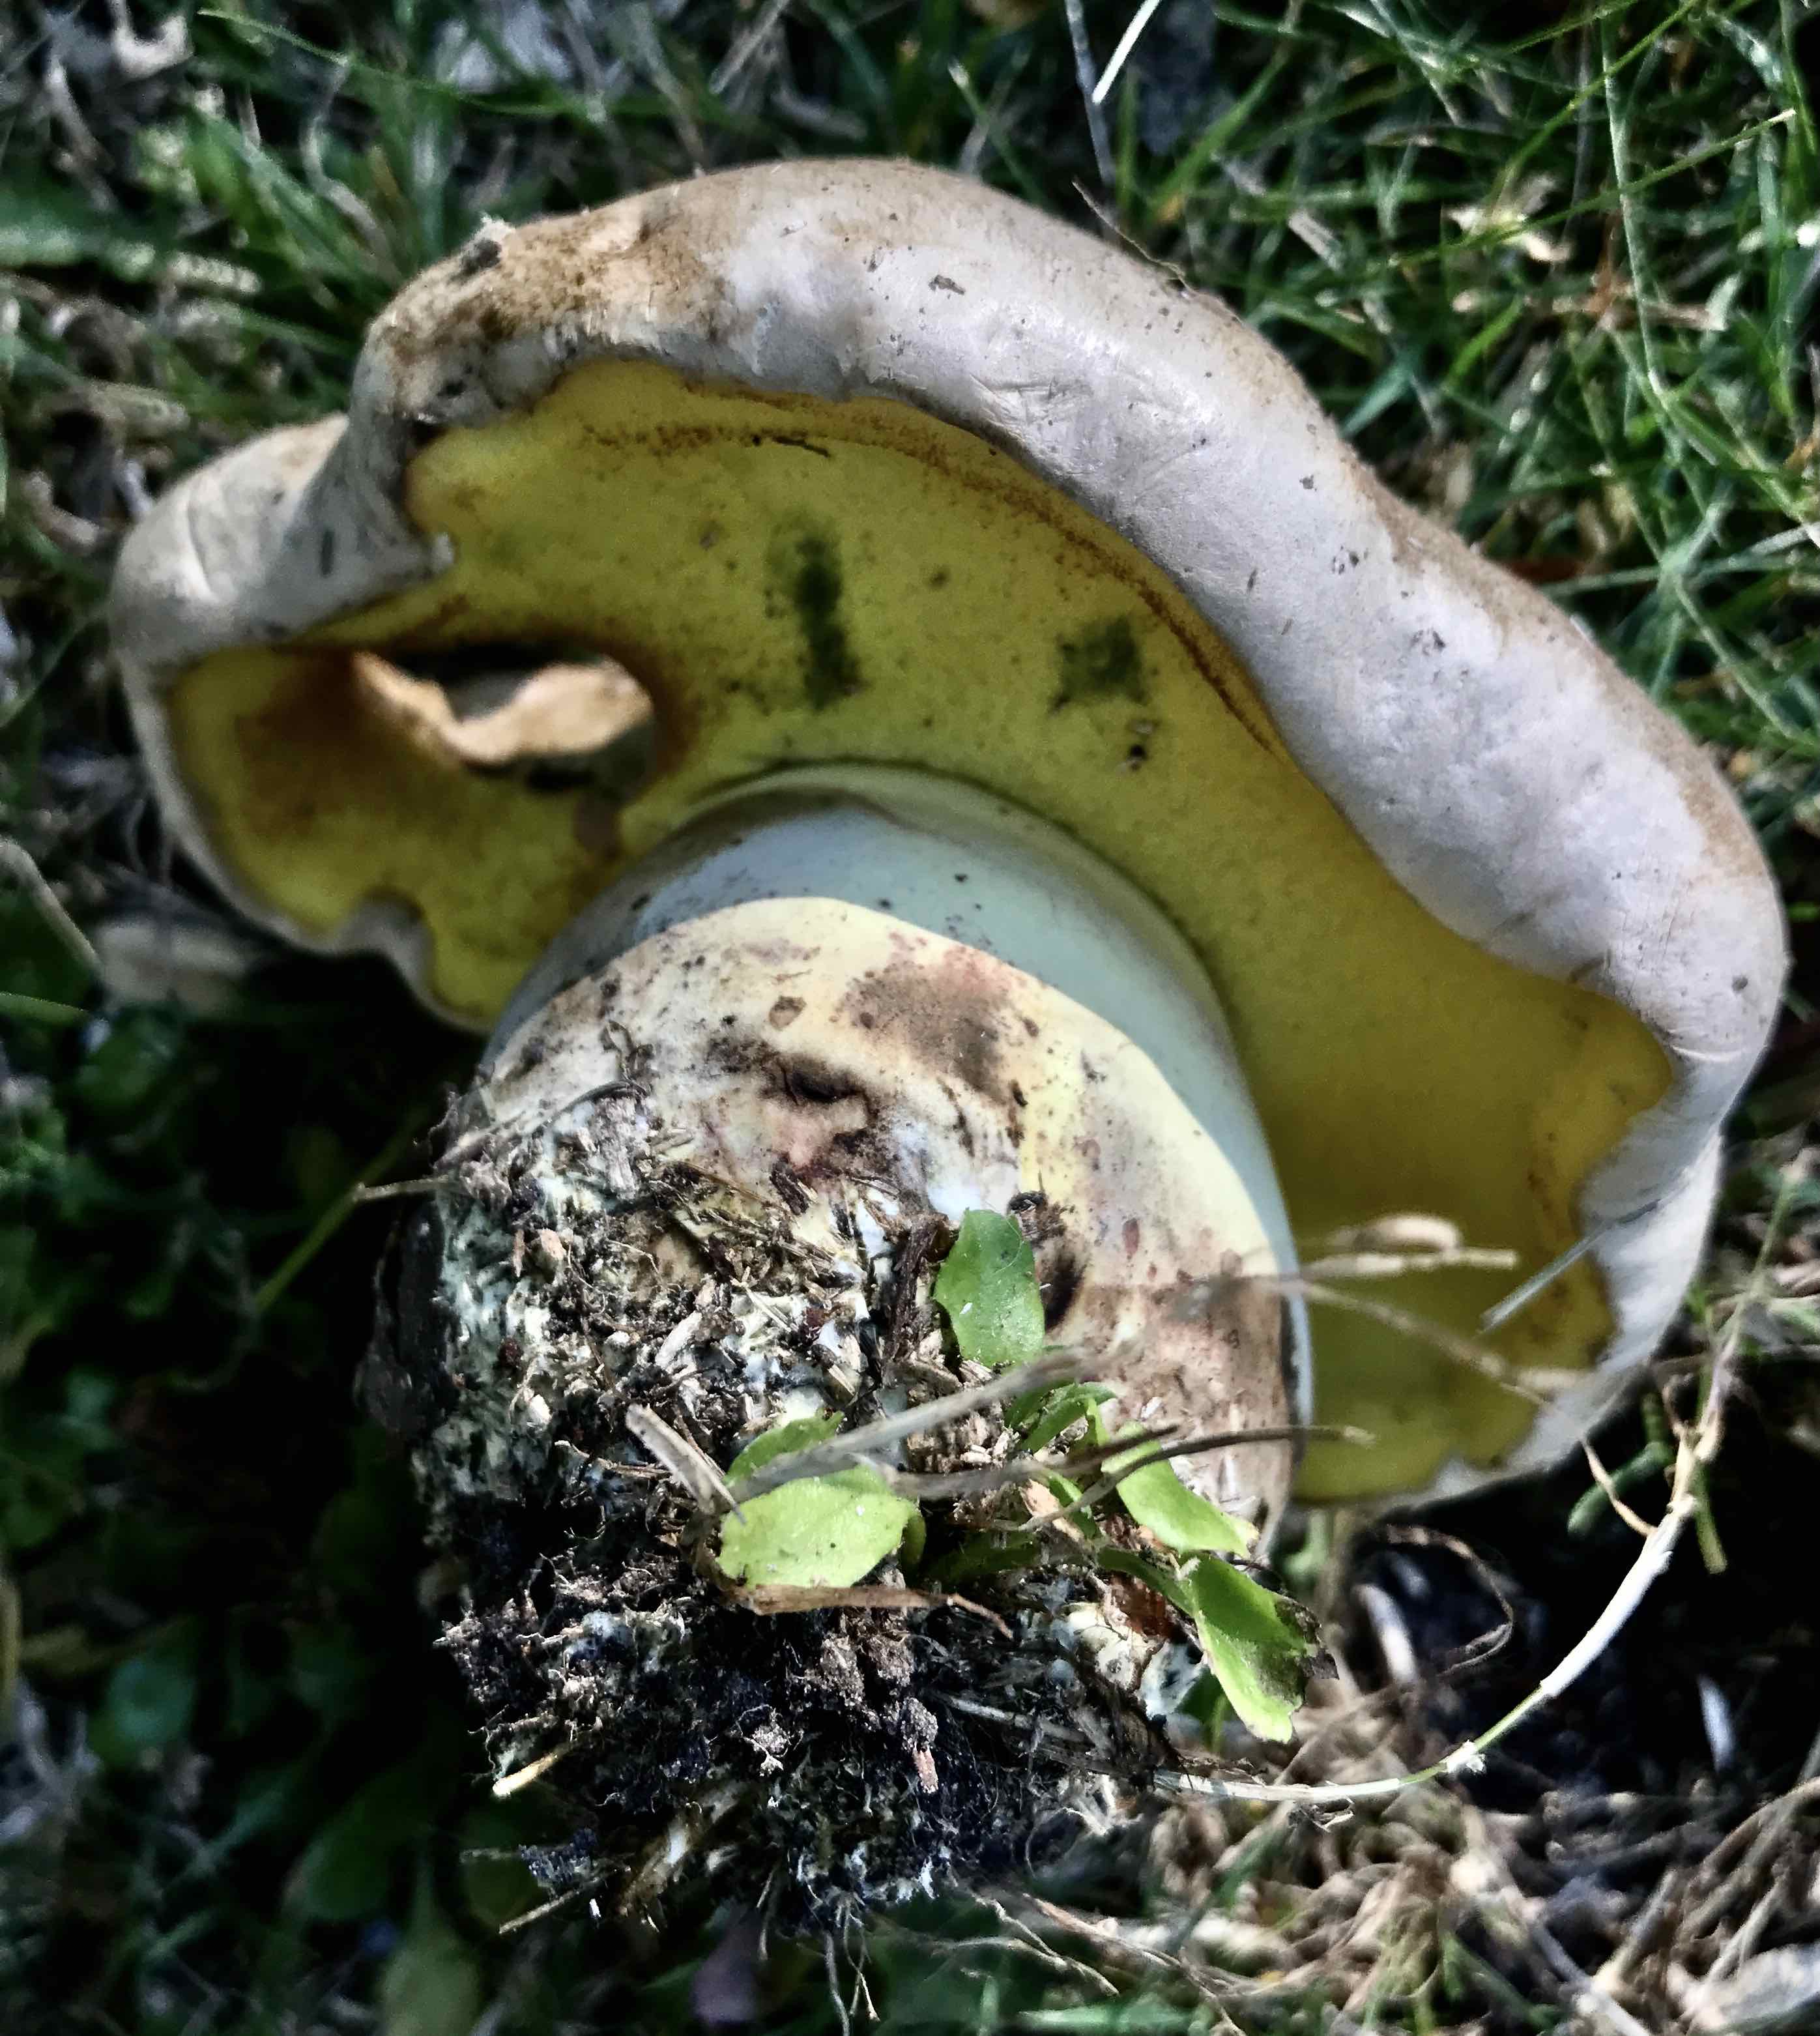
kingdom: Fungi
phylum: Basidiomycota
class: Agaricomycetes
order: Boletales
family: Boletaceae
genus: Caloboletus
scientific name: Caloboletus radicans
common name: rod-rørhat
